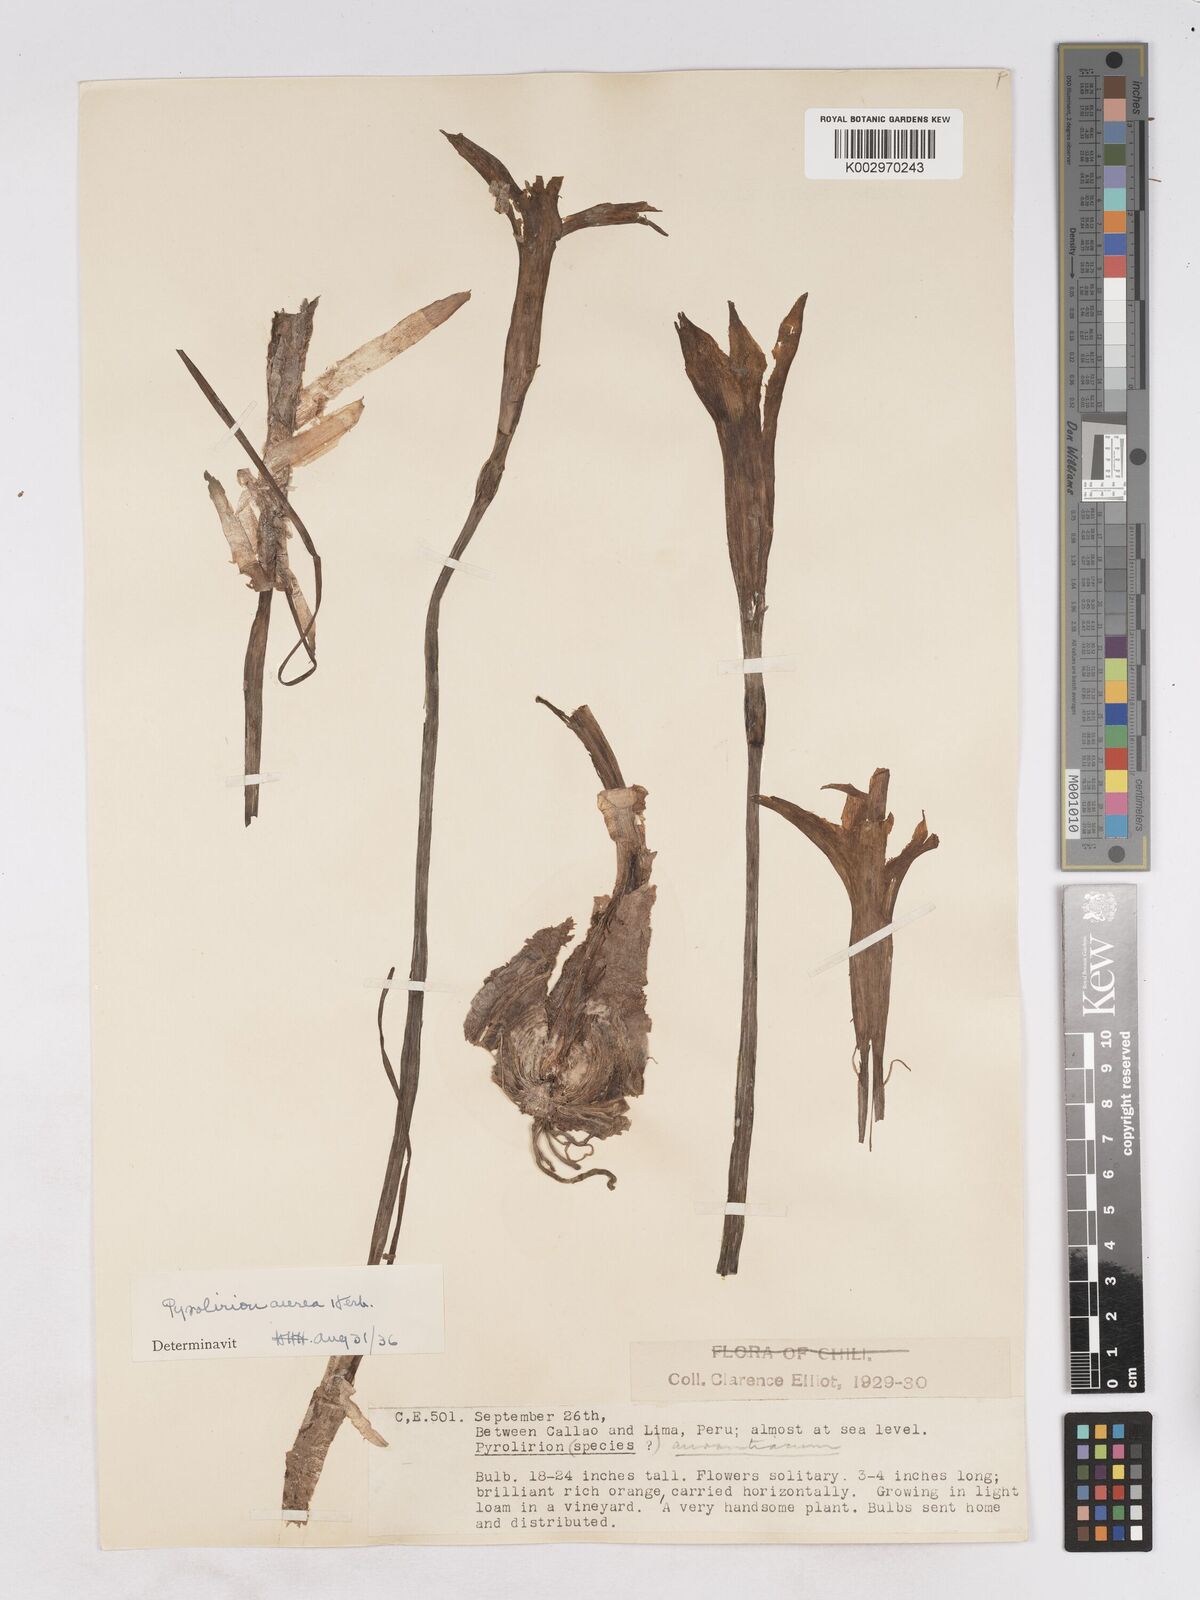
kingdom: Plantae
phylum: Tracheophyta
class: Liliopsida
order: Asparagales
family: Amaryllidaceae
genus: Pyrolirion
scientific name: Pyrolirion arvense
